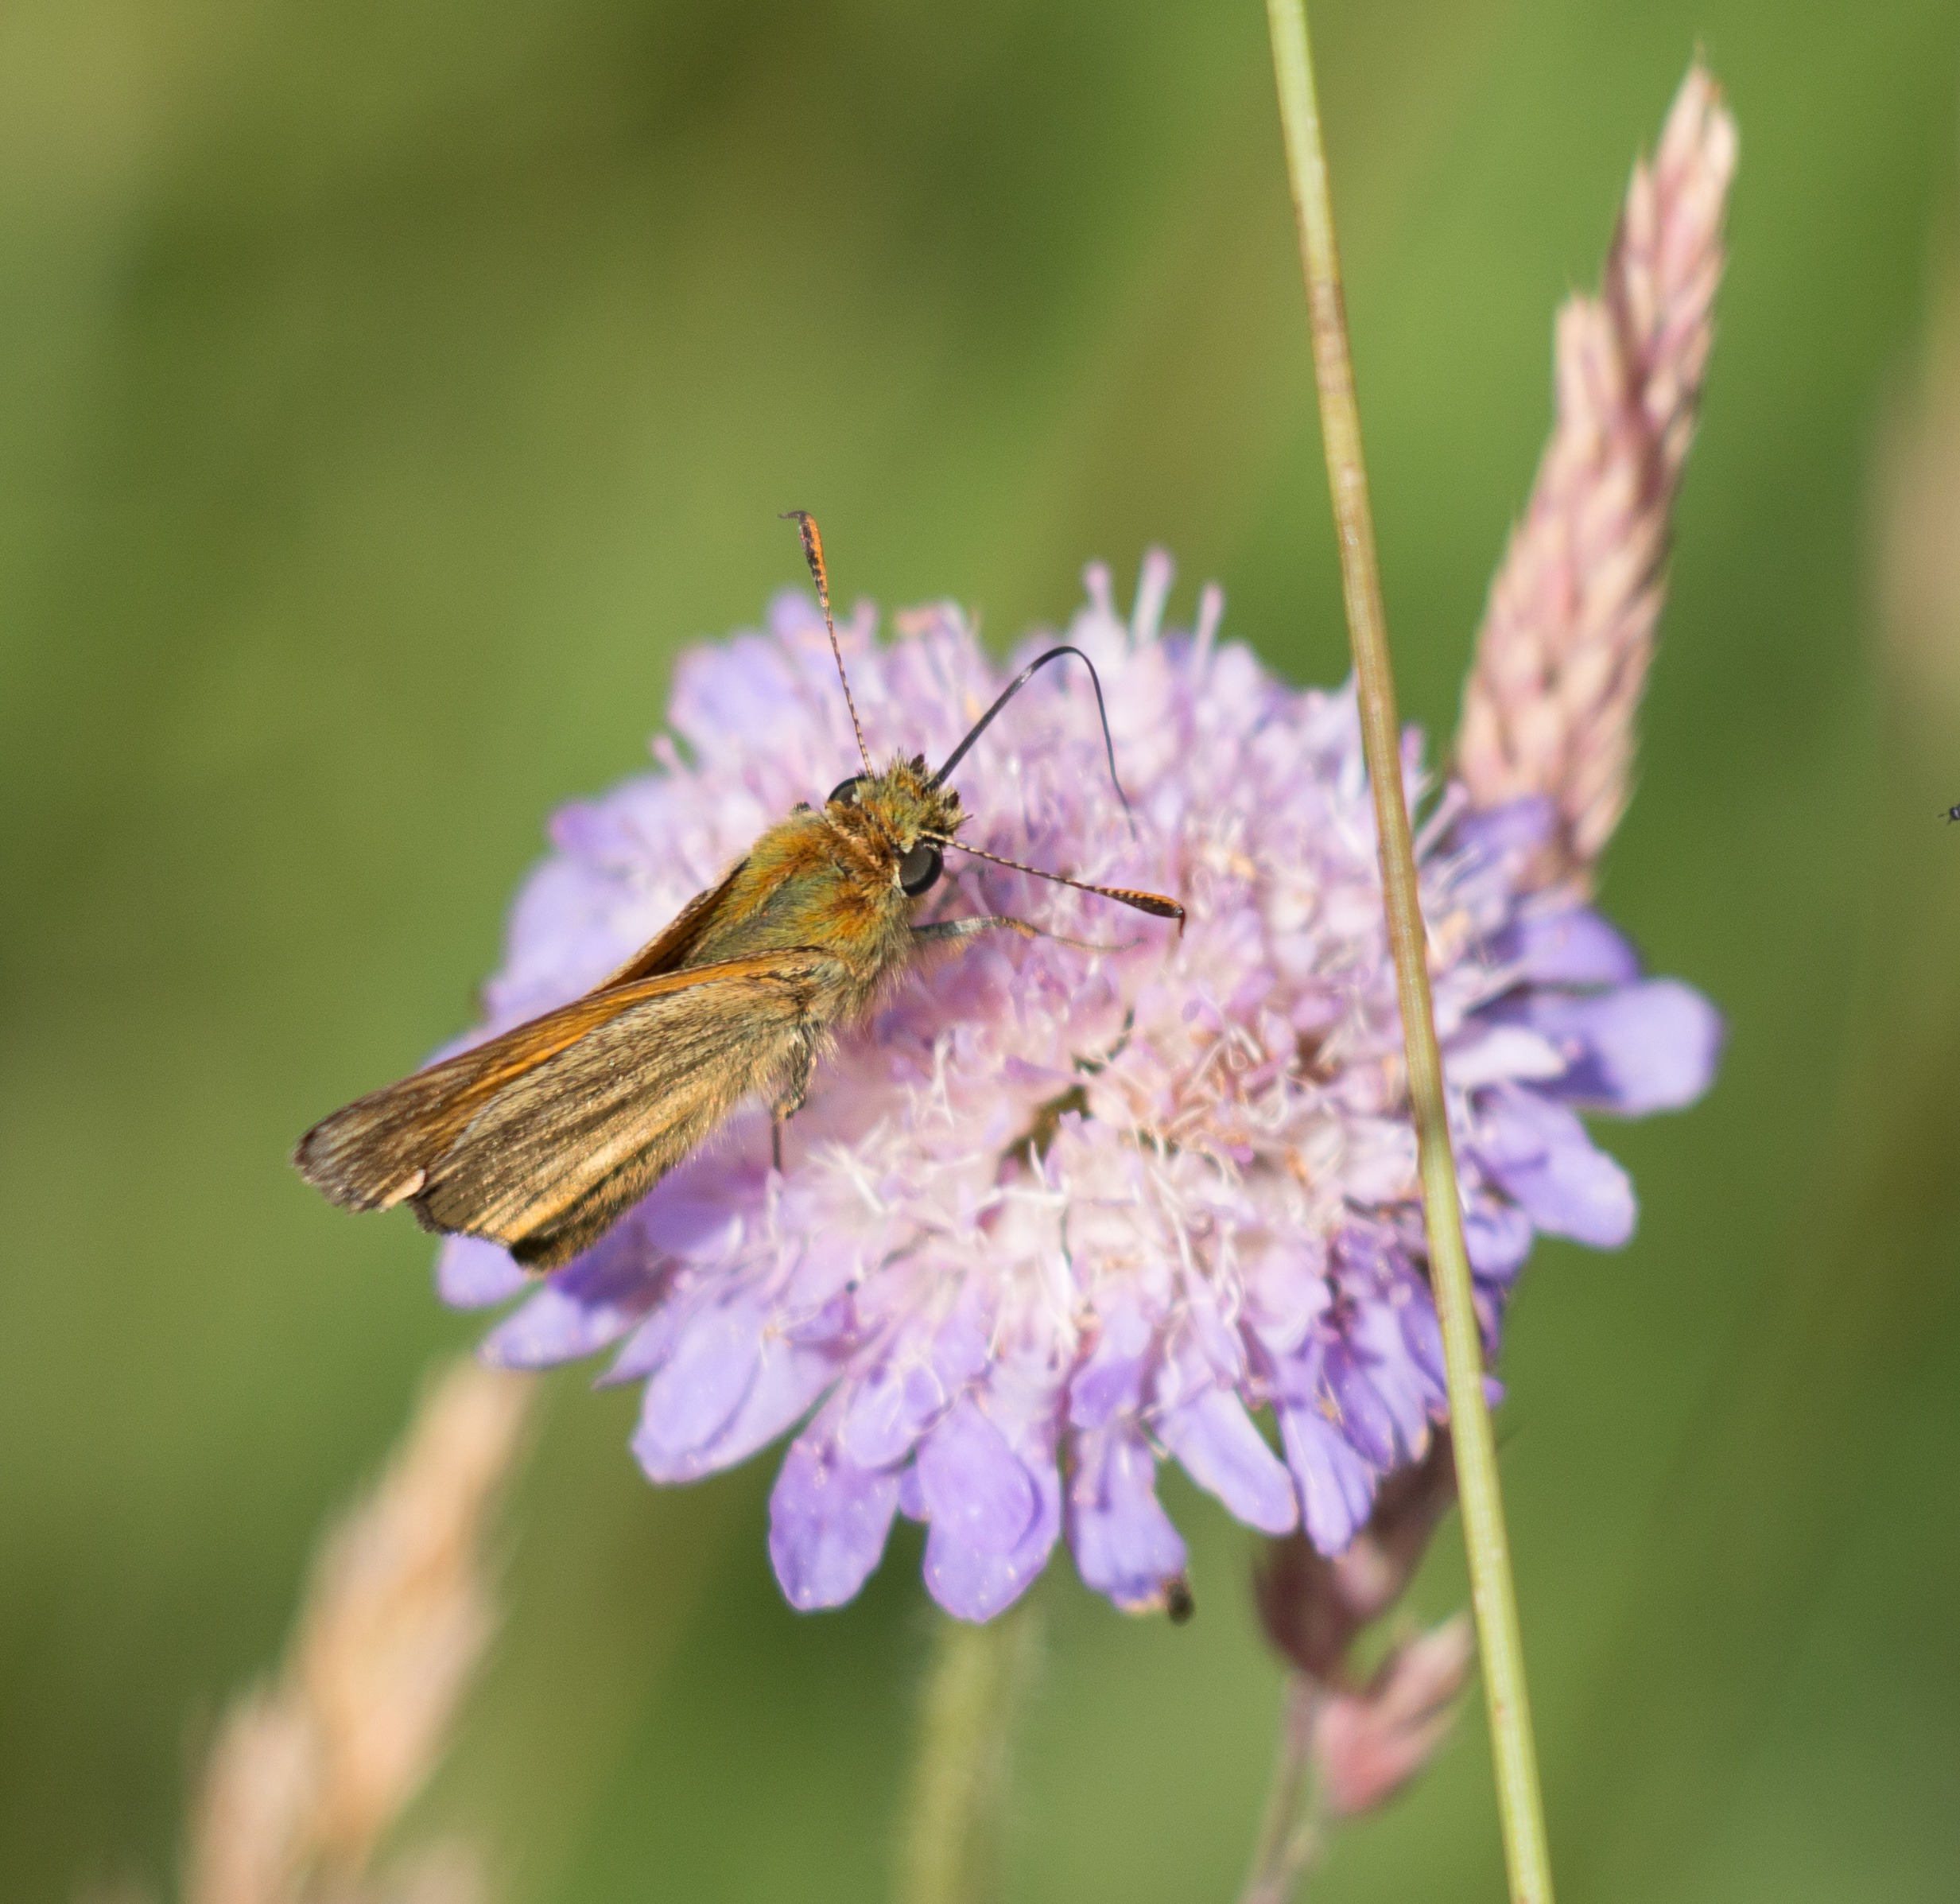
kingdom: Animalia
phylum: Arthropoda
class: Insecta
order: Lepidoptera
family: Hesperiidae
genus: Ochlodes
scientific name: Ochlodes venata
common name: Stor bredpande
